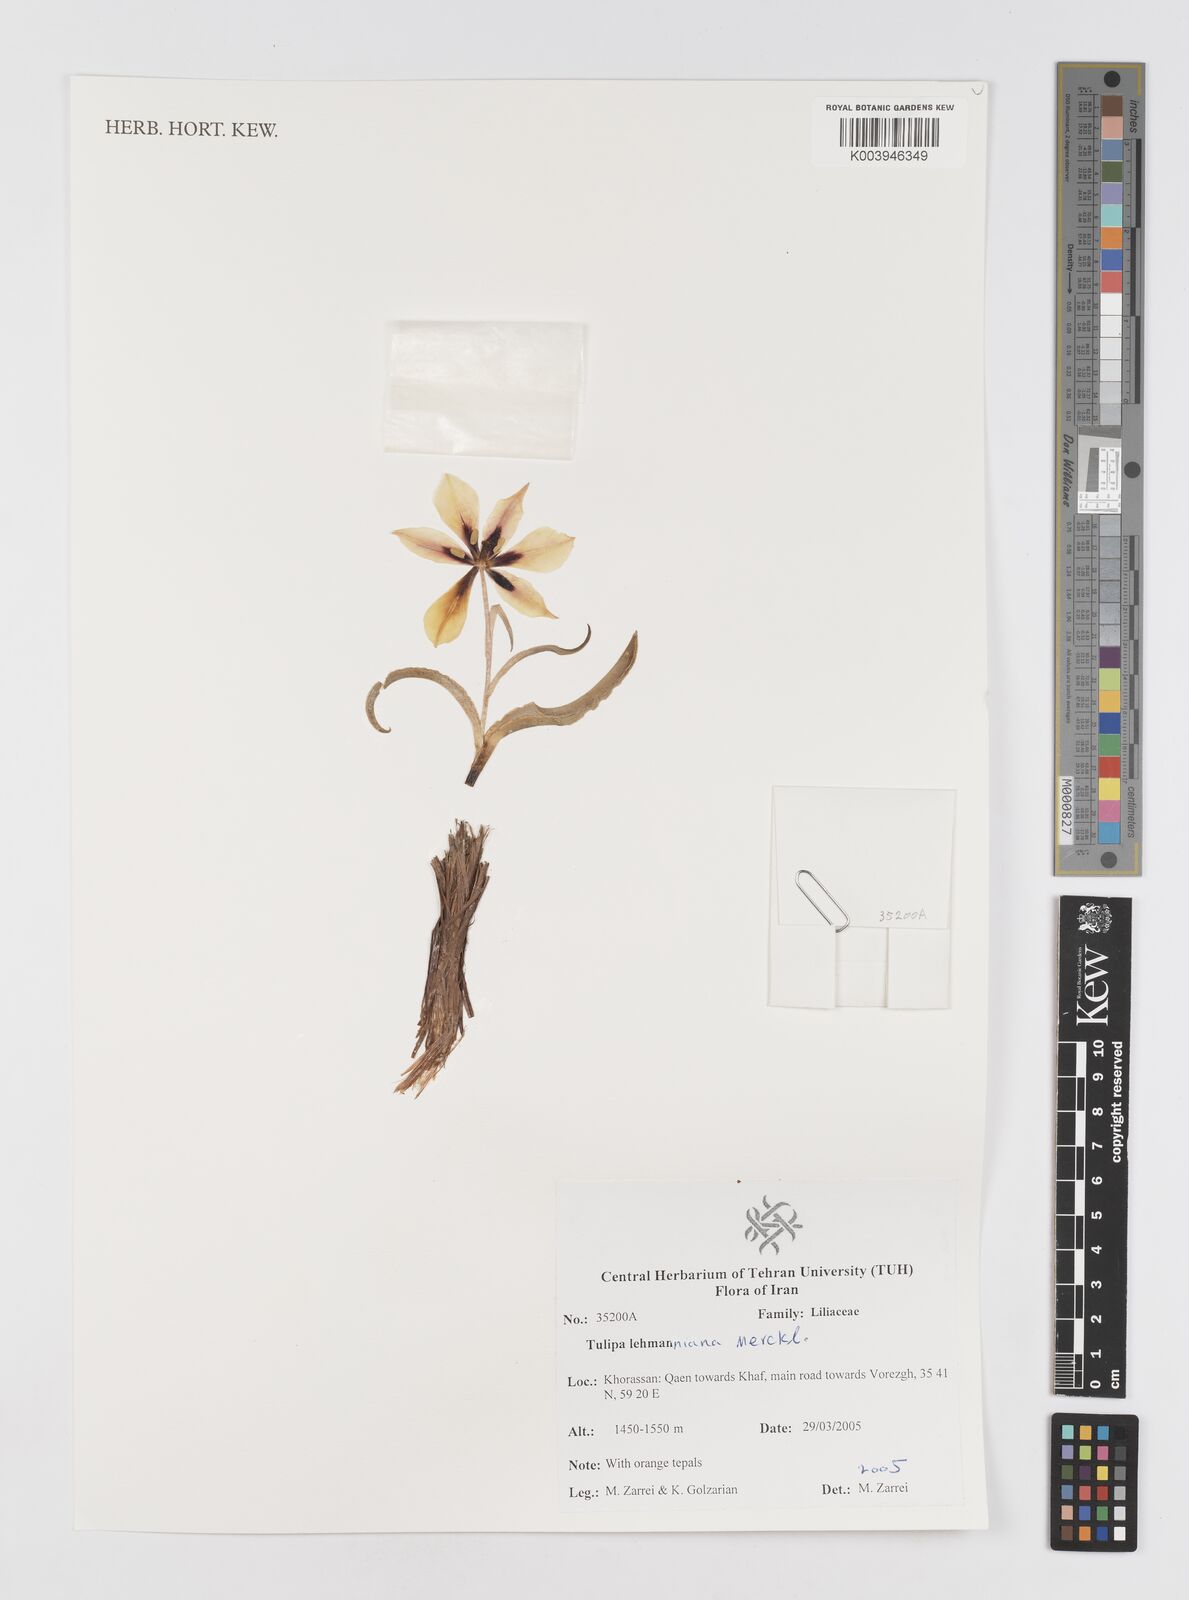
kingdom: Plantae
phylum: Tracheophyta
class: Liliopsida
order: Liliales
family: Liliaceae
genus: Tulipa
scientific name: Tulipa lehmanniana
